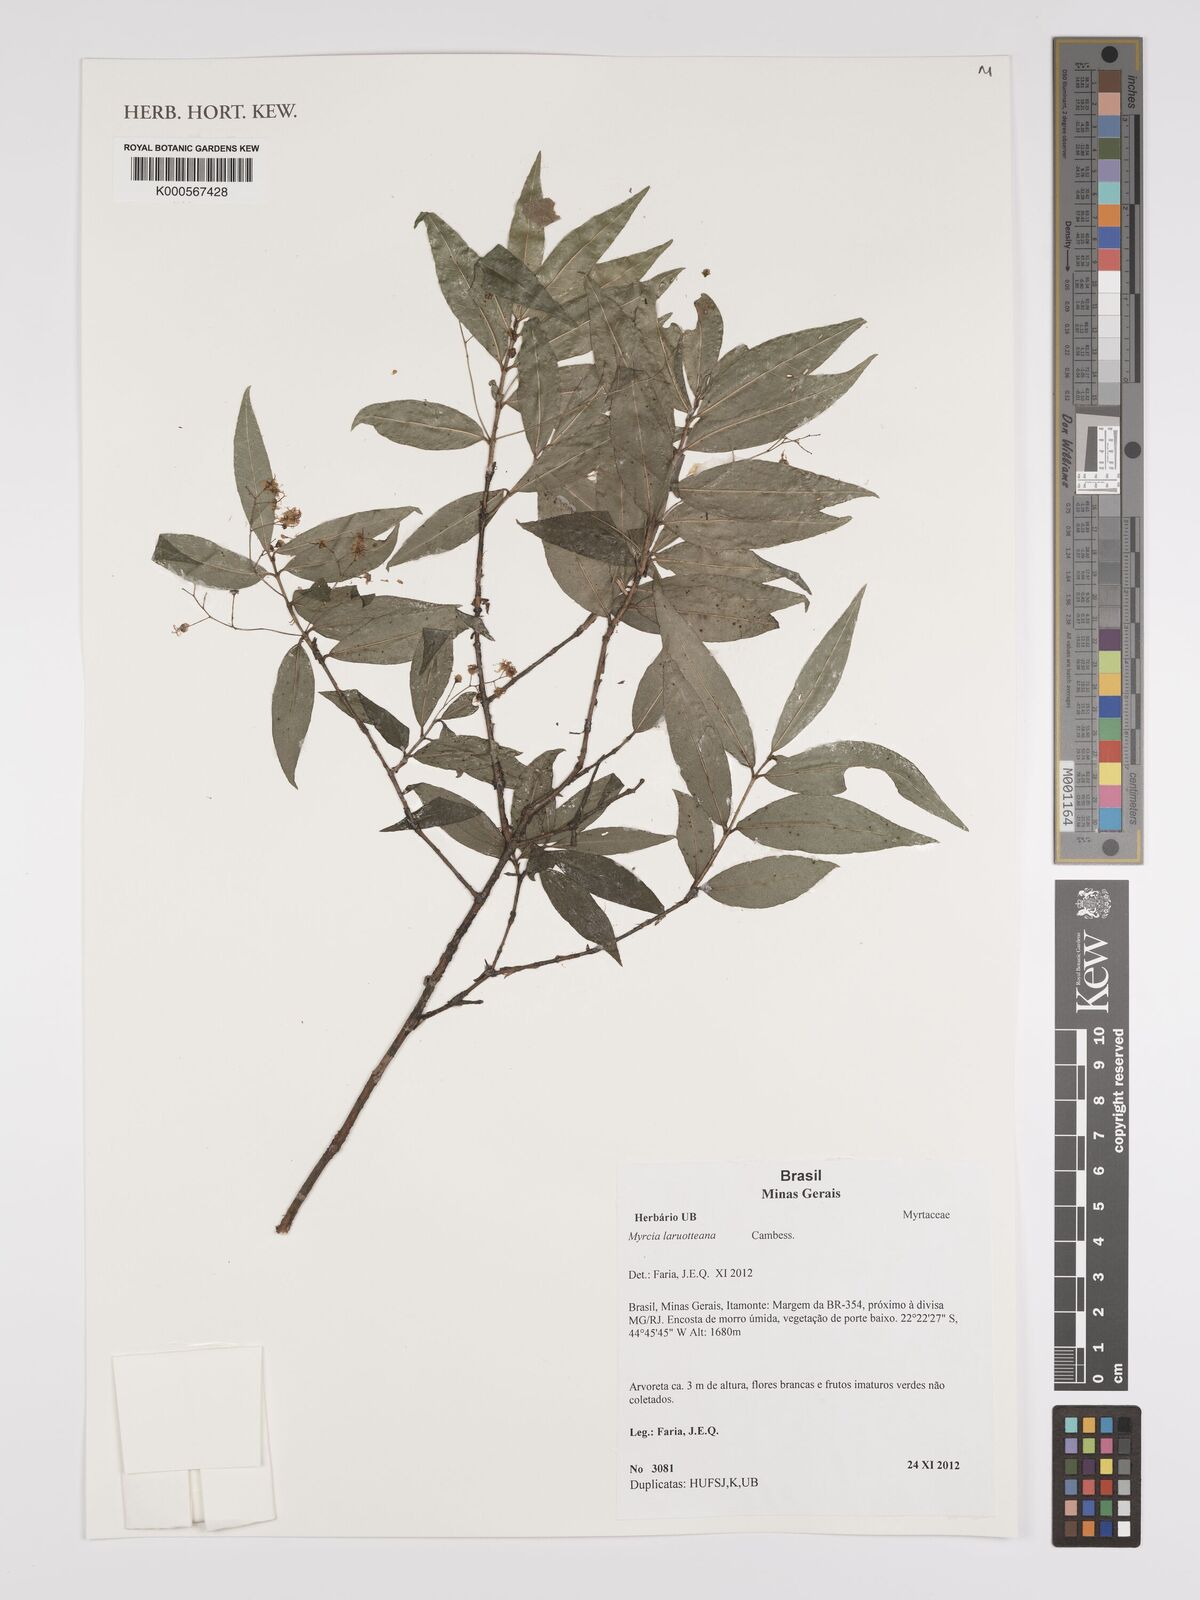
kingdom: Plantae
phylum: Tracheophyta
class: Magnoliopsida
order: Myrtales
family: Myrtaceae
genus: Myrcia
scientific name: Myrcia laruotteana
